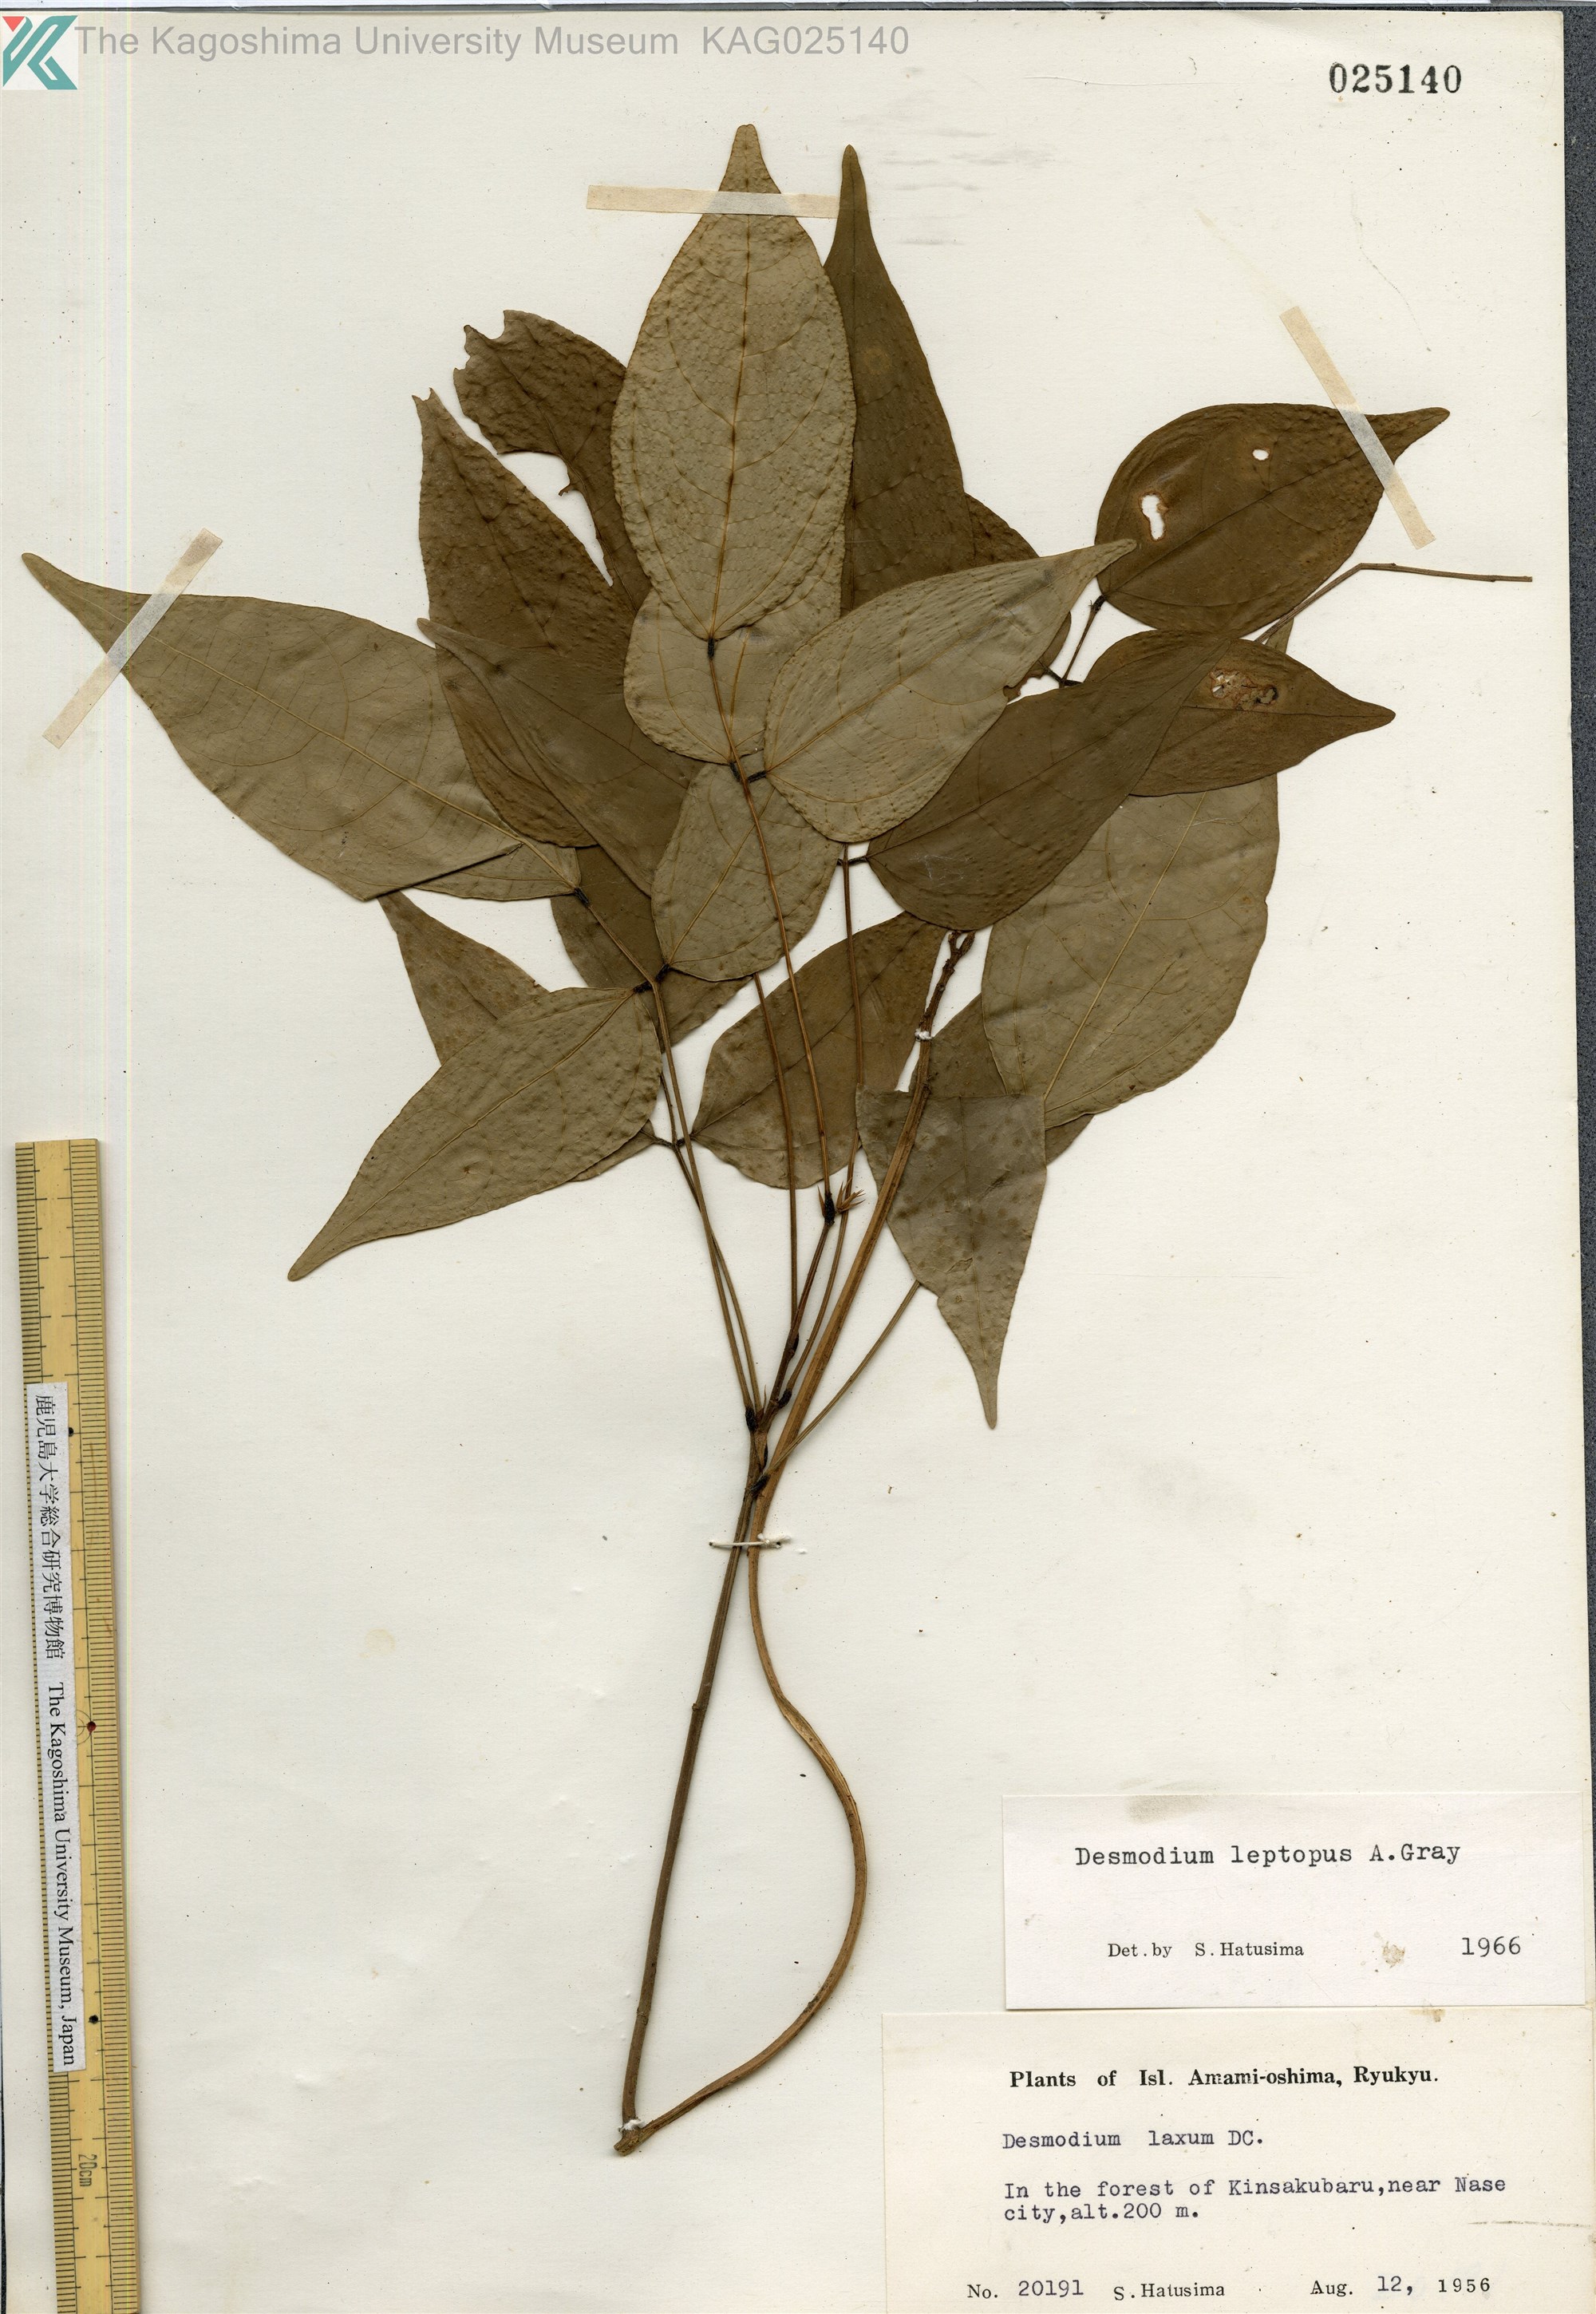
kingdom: Plantae
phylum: Tracheophyta
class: Magnoliopsida
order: Fabales
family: Fabaceae
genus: Hylodesmum
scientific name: Hylodesmum leptopus
